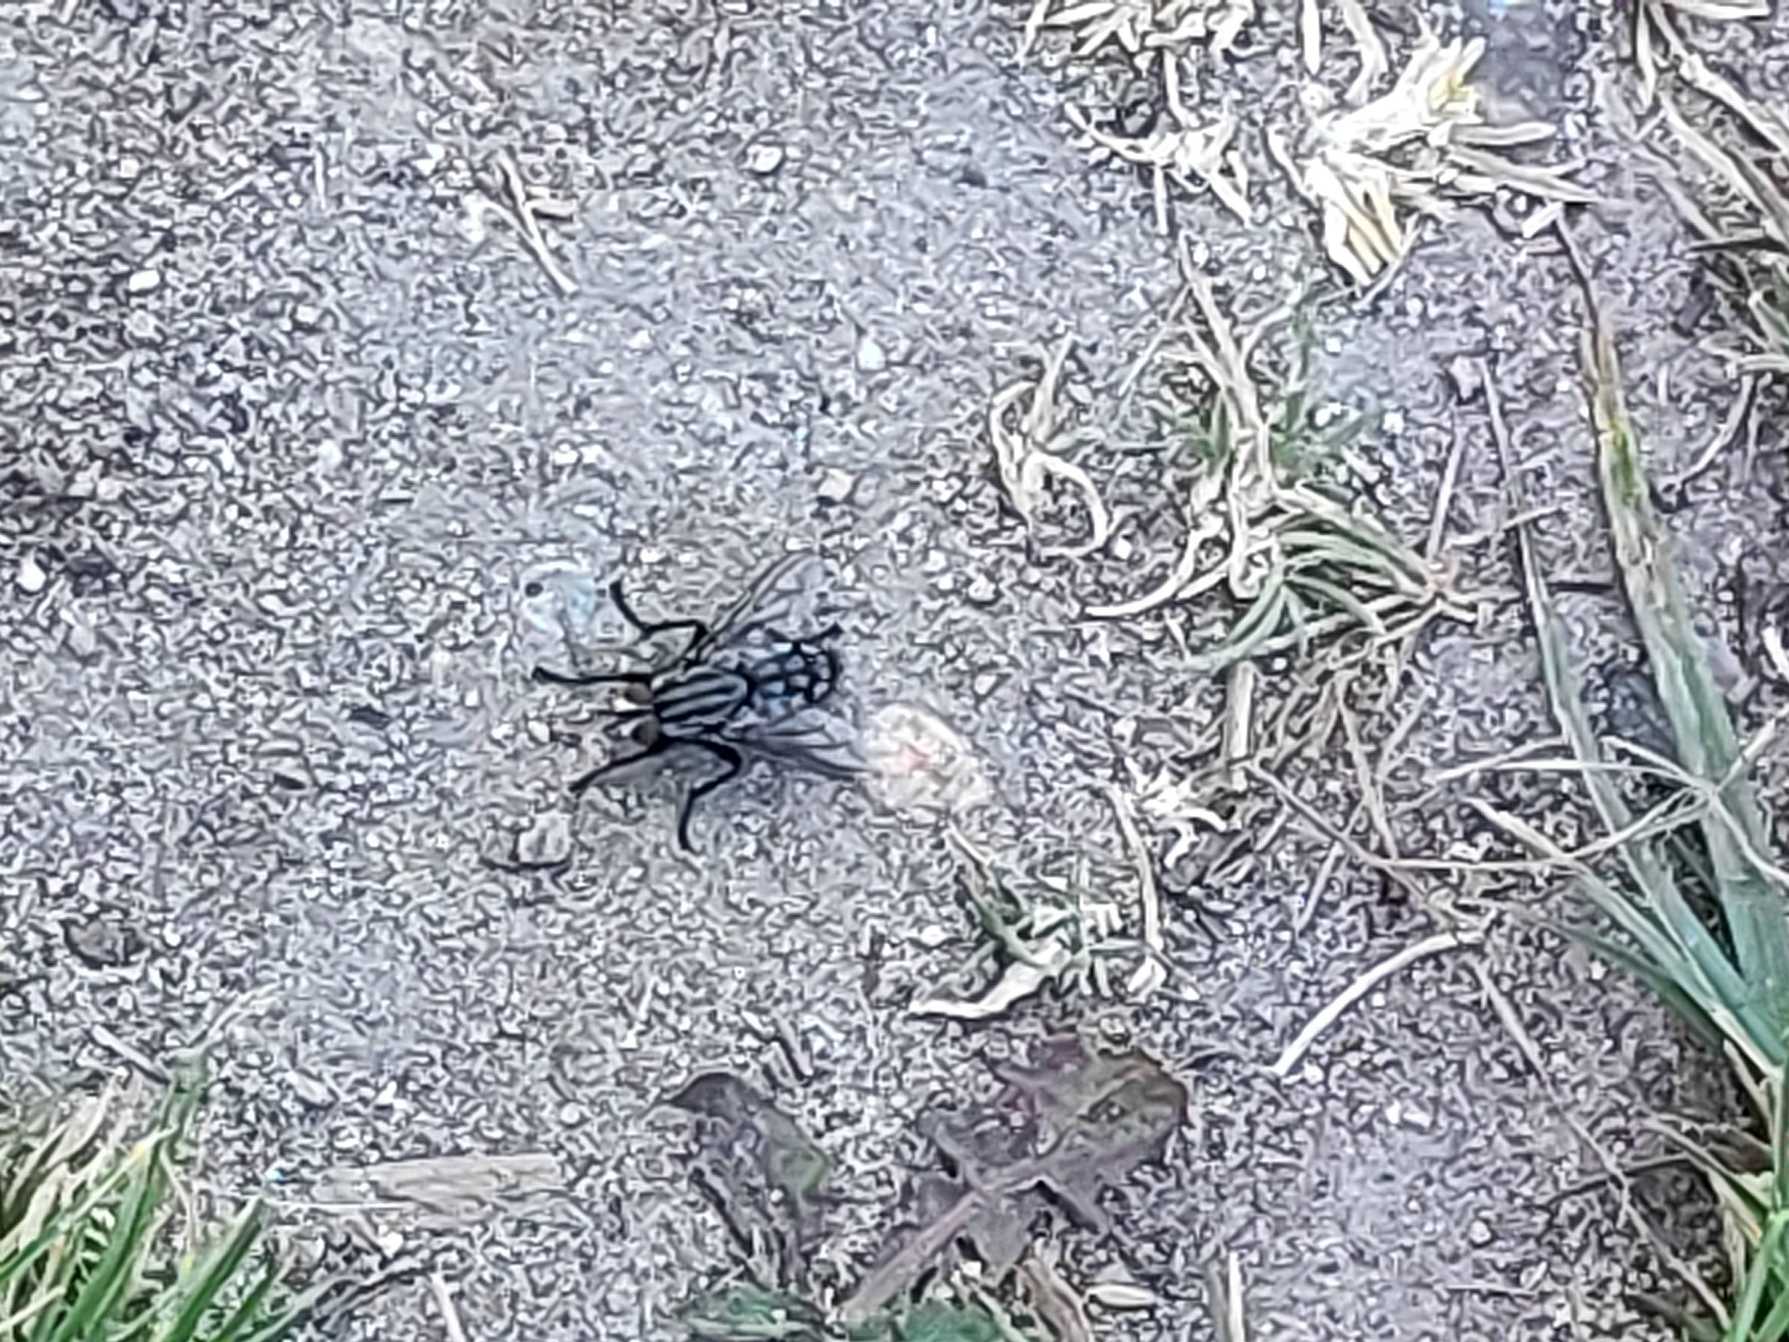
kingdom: Animalia
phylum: Arthropoda
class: Insecta
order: Diptera
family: Sarcophagidae
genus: Sarcophaga
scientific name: Sarcophaga
